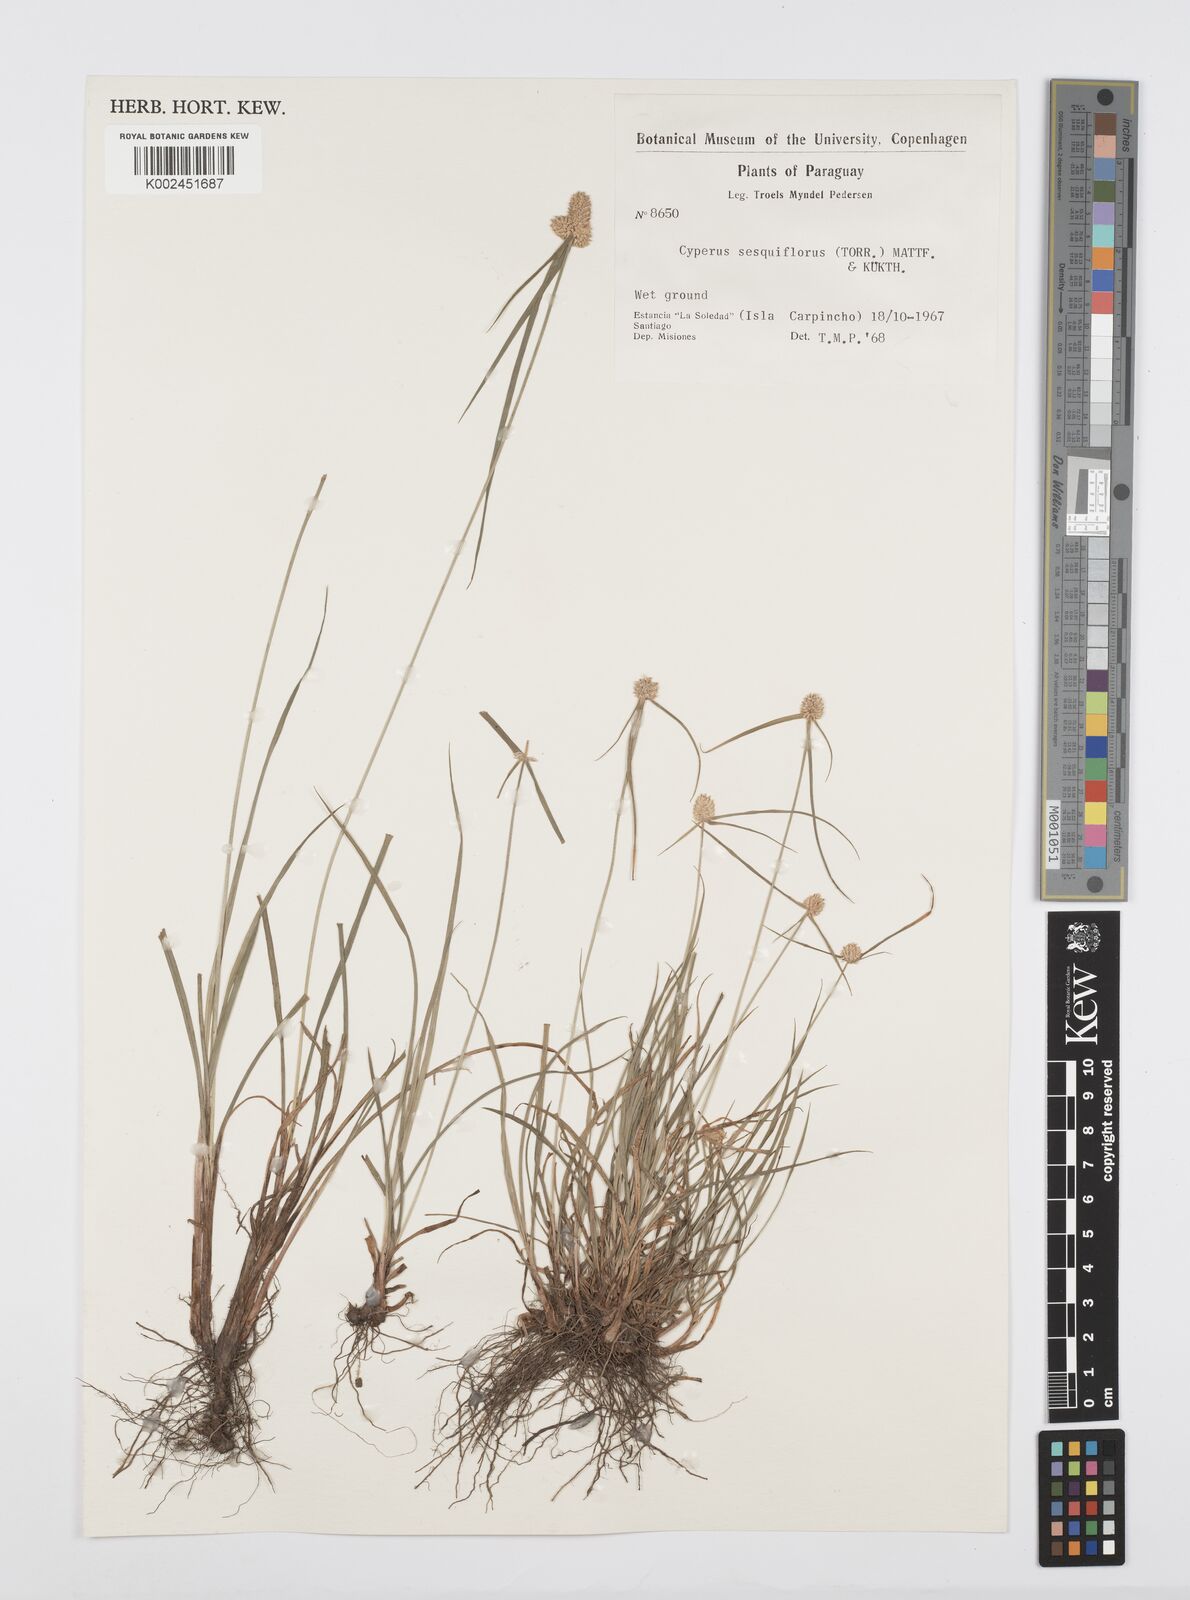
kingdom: Plantae
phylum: Tracheophyta
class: Liliopsida
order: Poales
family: Cyperaceae
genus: Cyperus
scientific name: Cyperus
